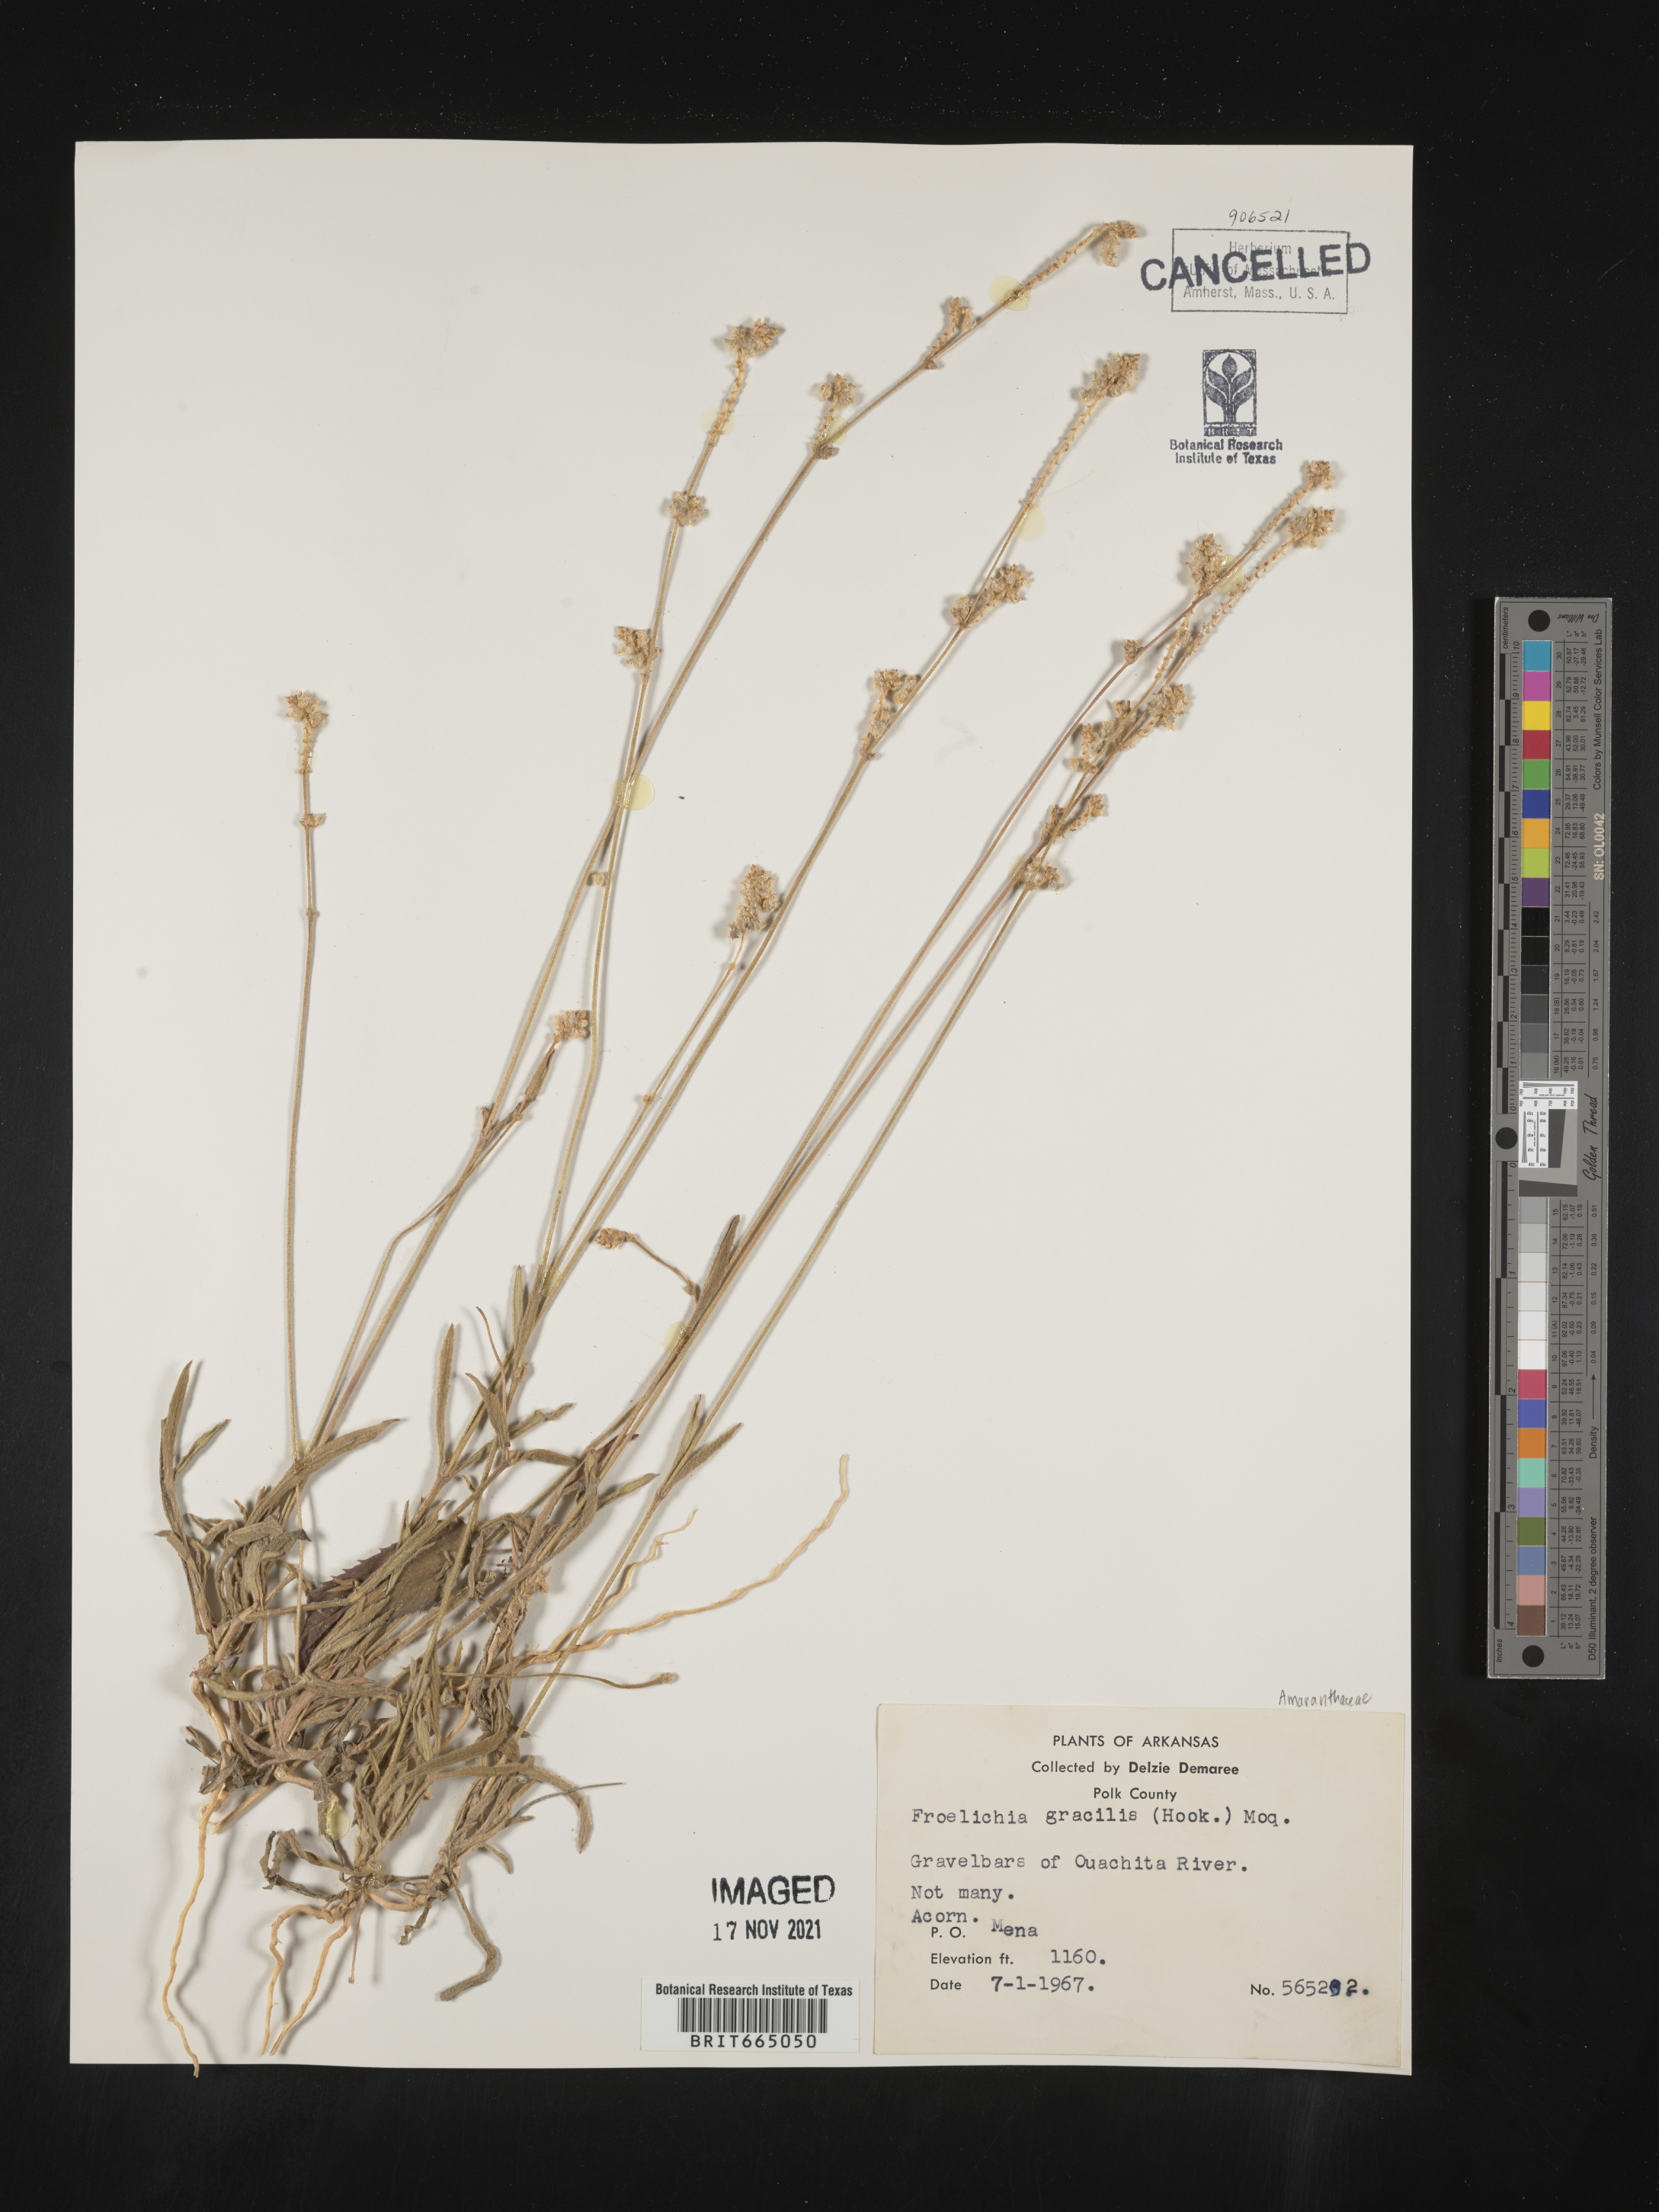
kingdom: Plantae
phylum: Tracheophyta
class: Magnoliopsida
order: Caryophyllales
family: Amaranthaceae
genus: Froelichia
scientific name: Froelichia gracilis
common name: Slender cottonweed
